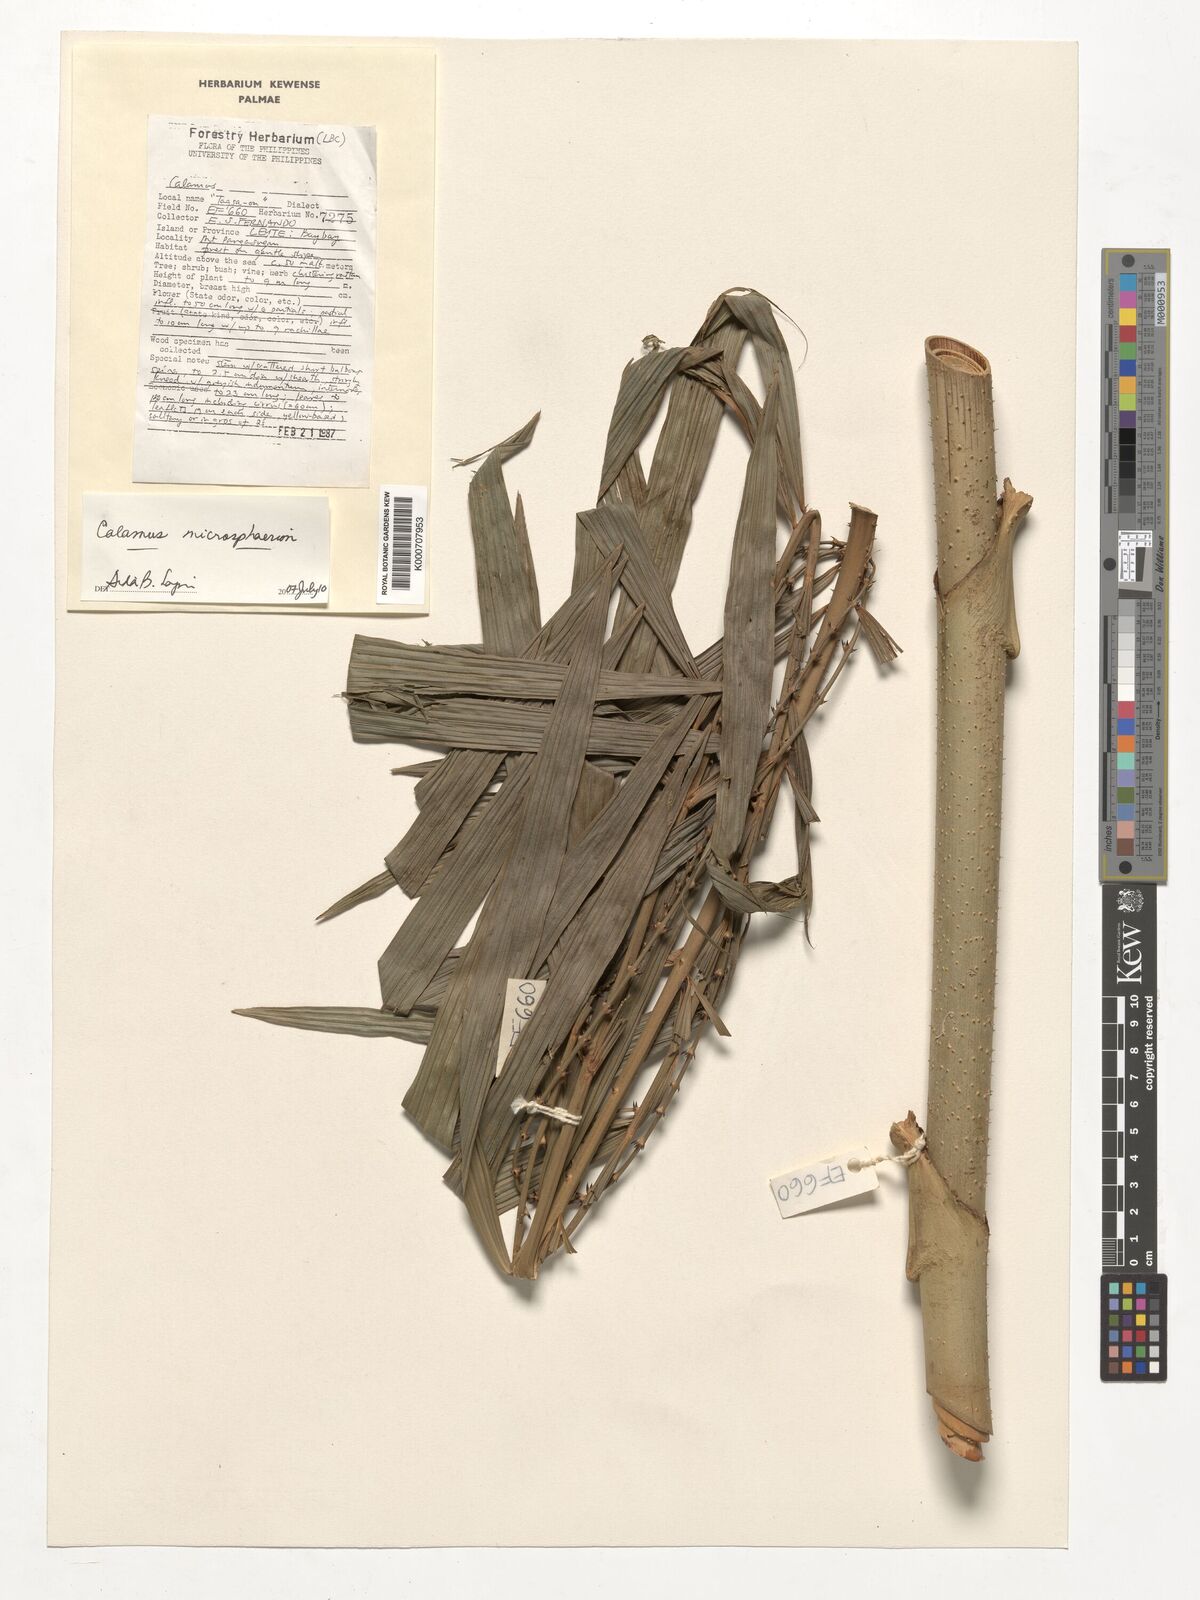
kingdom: Plantae
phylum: Tracheophyta
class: Liliopsida
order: Arecales
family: Arecaceae
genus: Calamus
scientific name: Calamus microsphaerion
